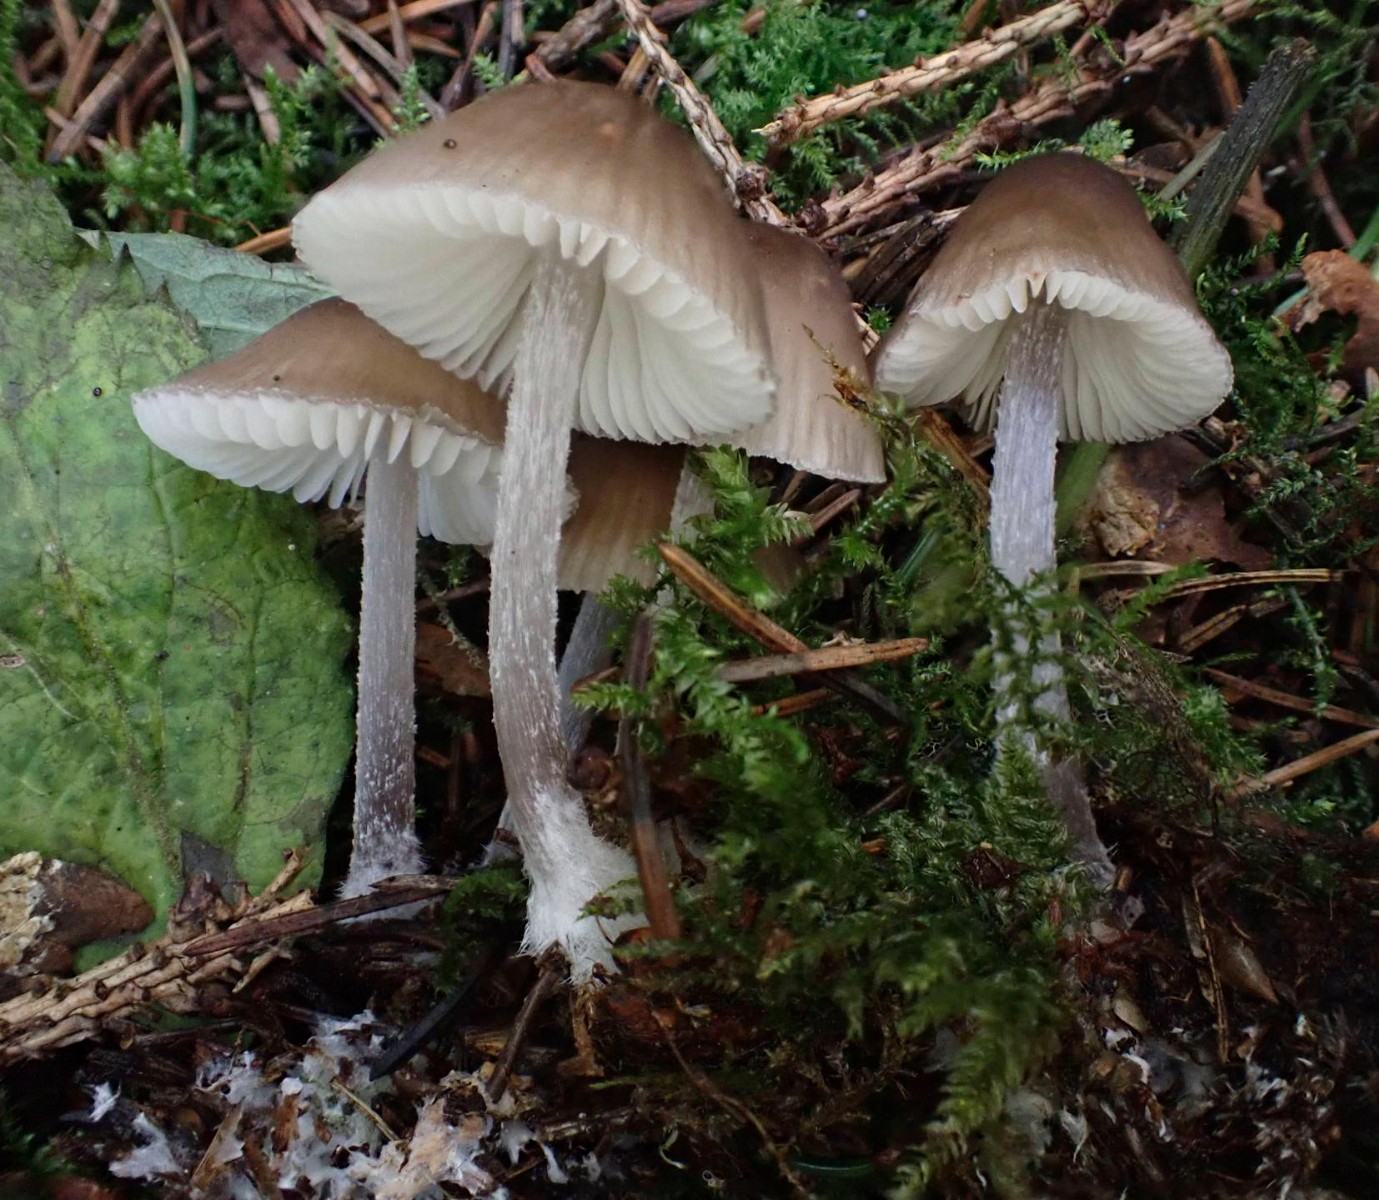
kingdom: Fungi
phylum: Basidiomycota
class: Agaricomycetes
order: Agaricales
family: Mycenaceae
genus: Mycena
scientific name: Mycena zephirus
